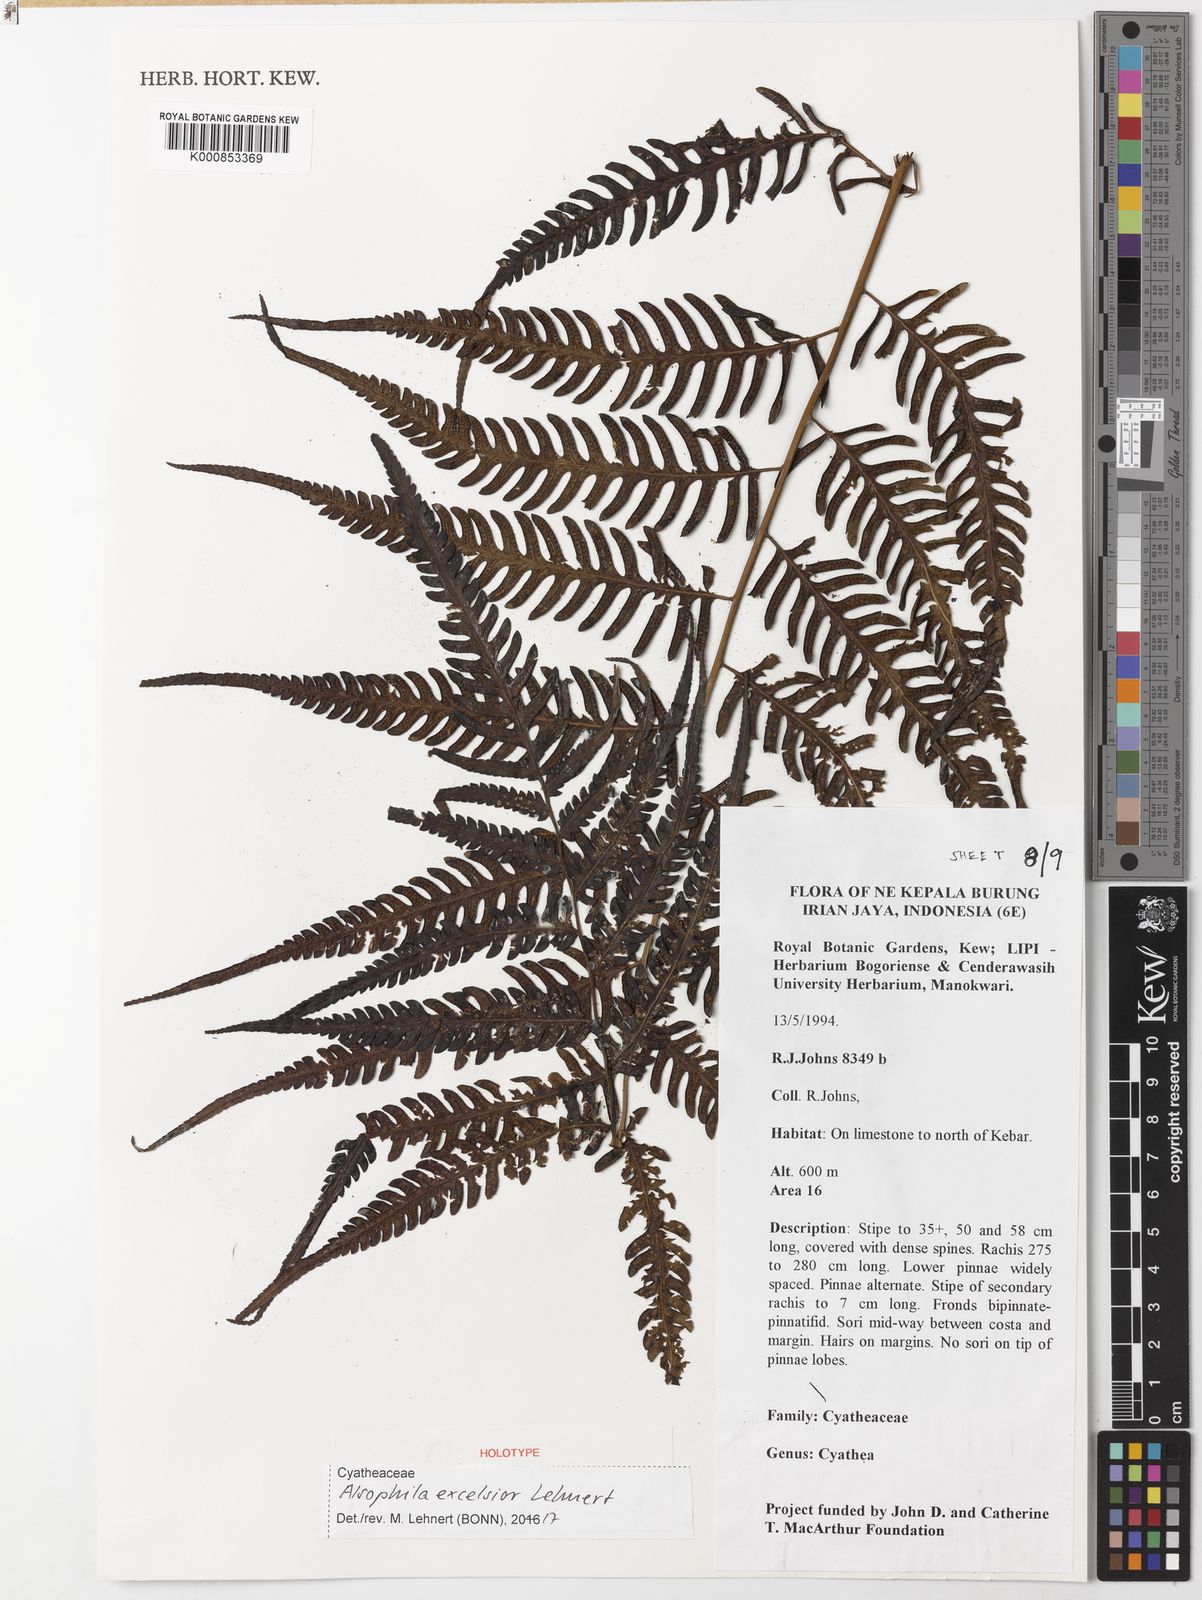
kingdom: Plantae
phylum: Tracheophyta
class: Polypodiopsida
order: Cyatheales
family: Cyatheaceae
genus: Alsophila
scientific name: Alsophila excelsior
